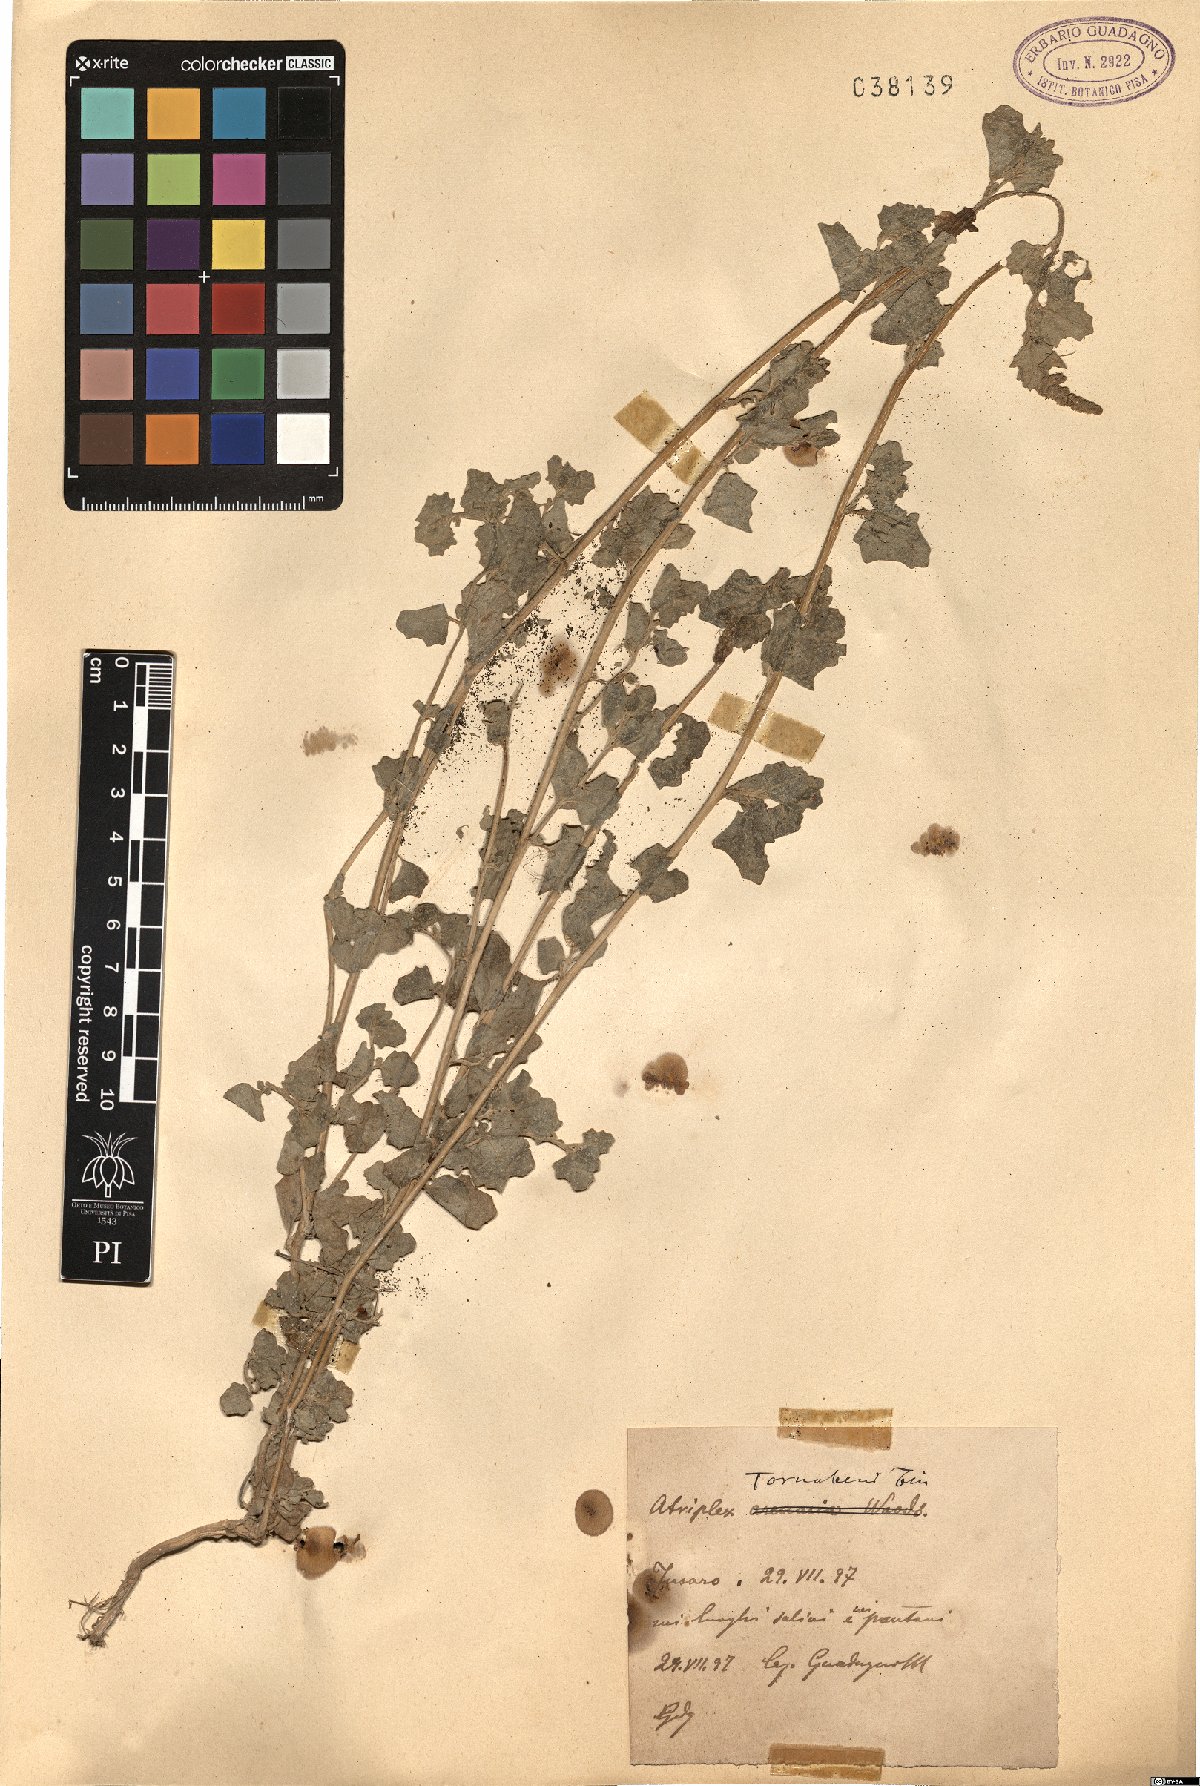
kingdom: Plantae
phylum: Tracheophyta
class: Magnoliopsida
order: Caryophyllales
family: Amaranthaceae
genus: Atriplex
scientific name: Atriplex tornabenei
